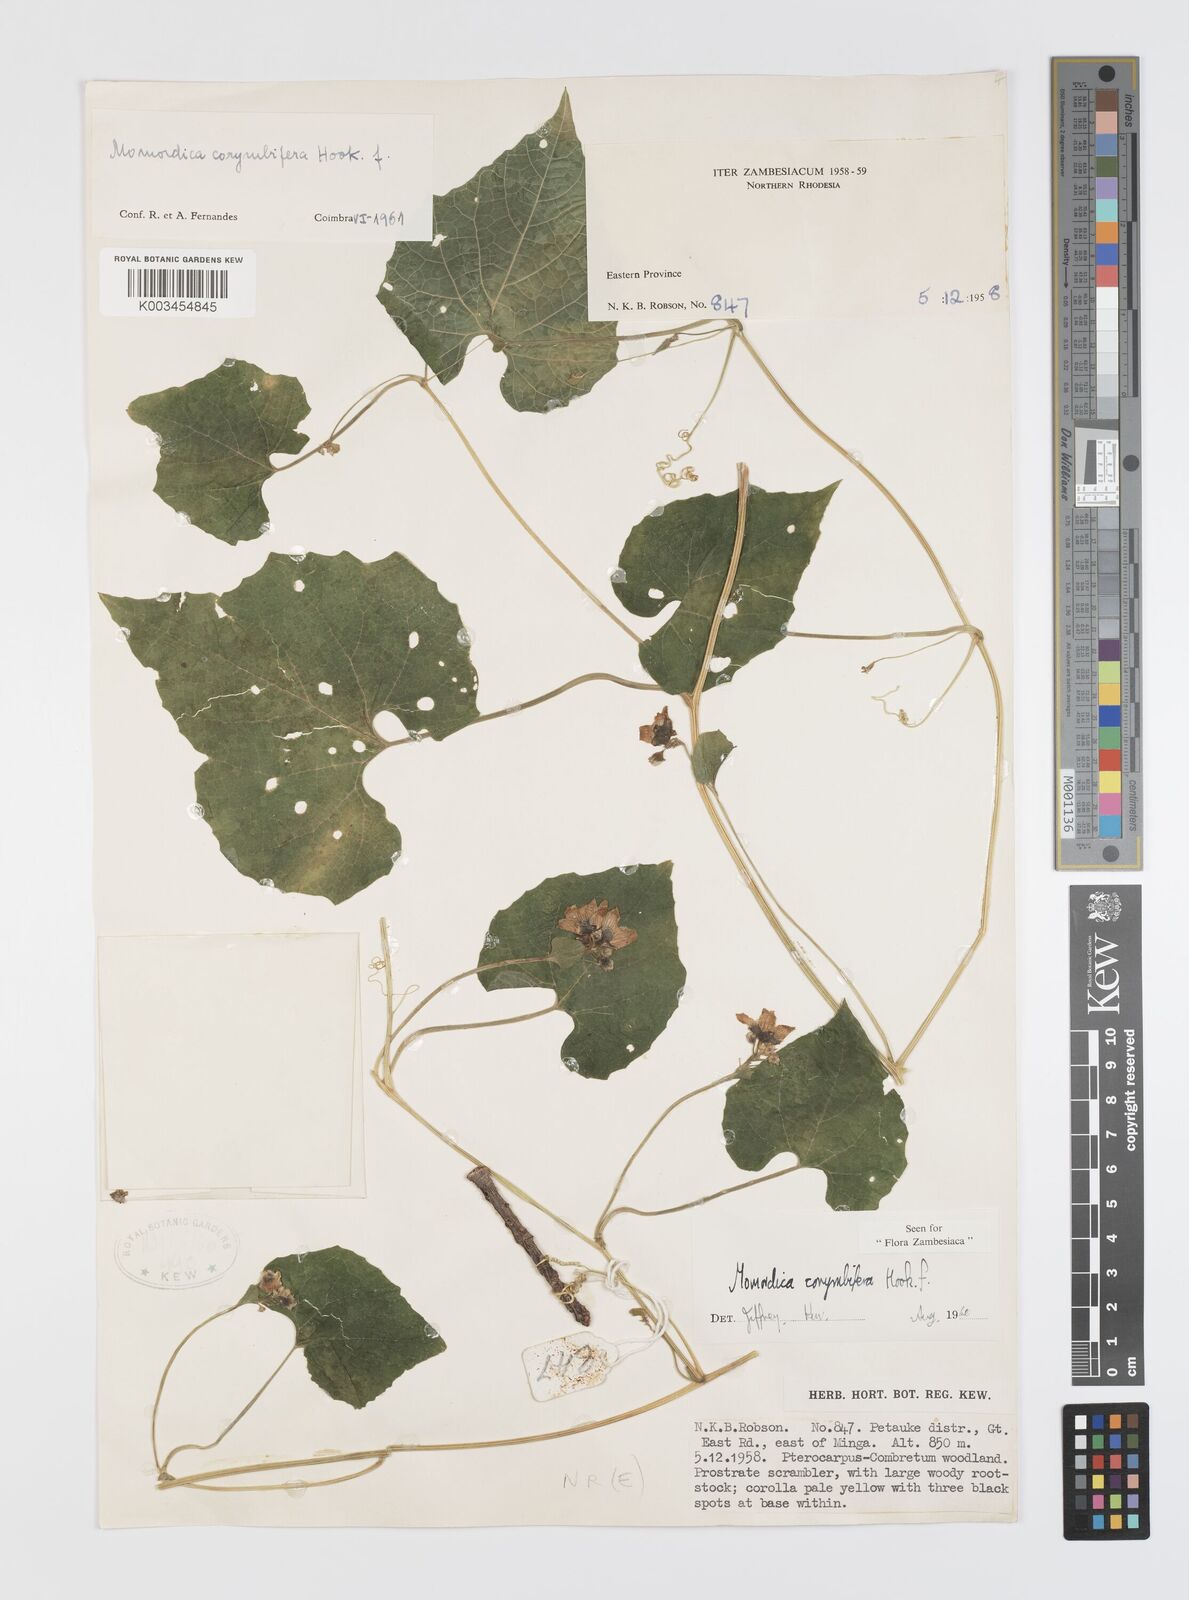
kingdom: Plantae
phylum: Tracheophyta
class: Magnoliopsida
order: Cucurbitales
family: Cucurbitaceae
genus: Momordica
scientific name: Momordica corymbifera
